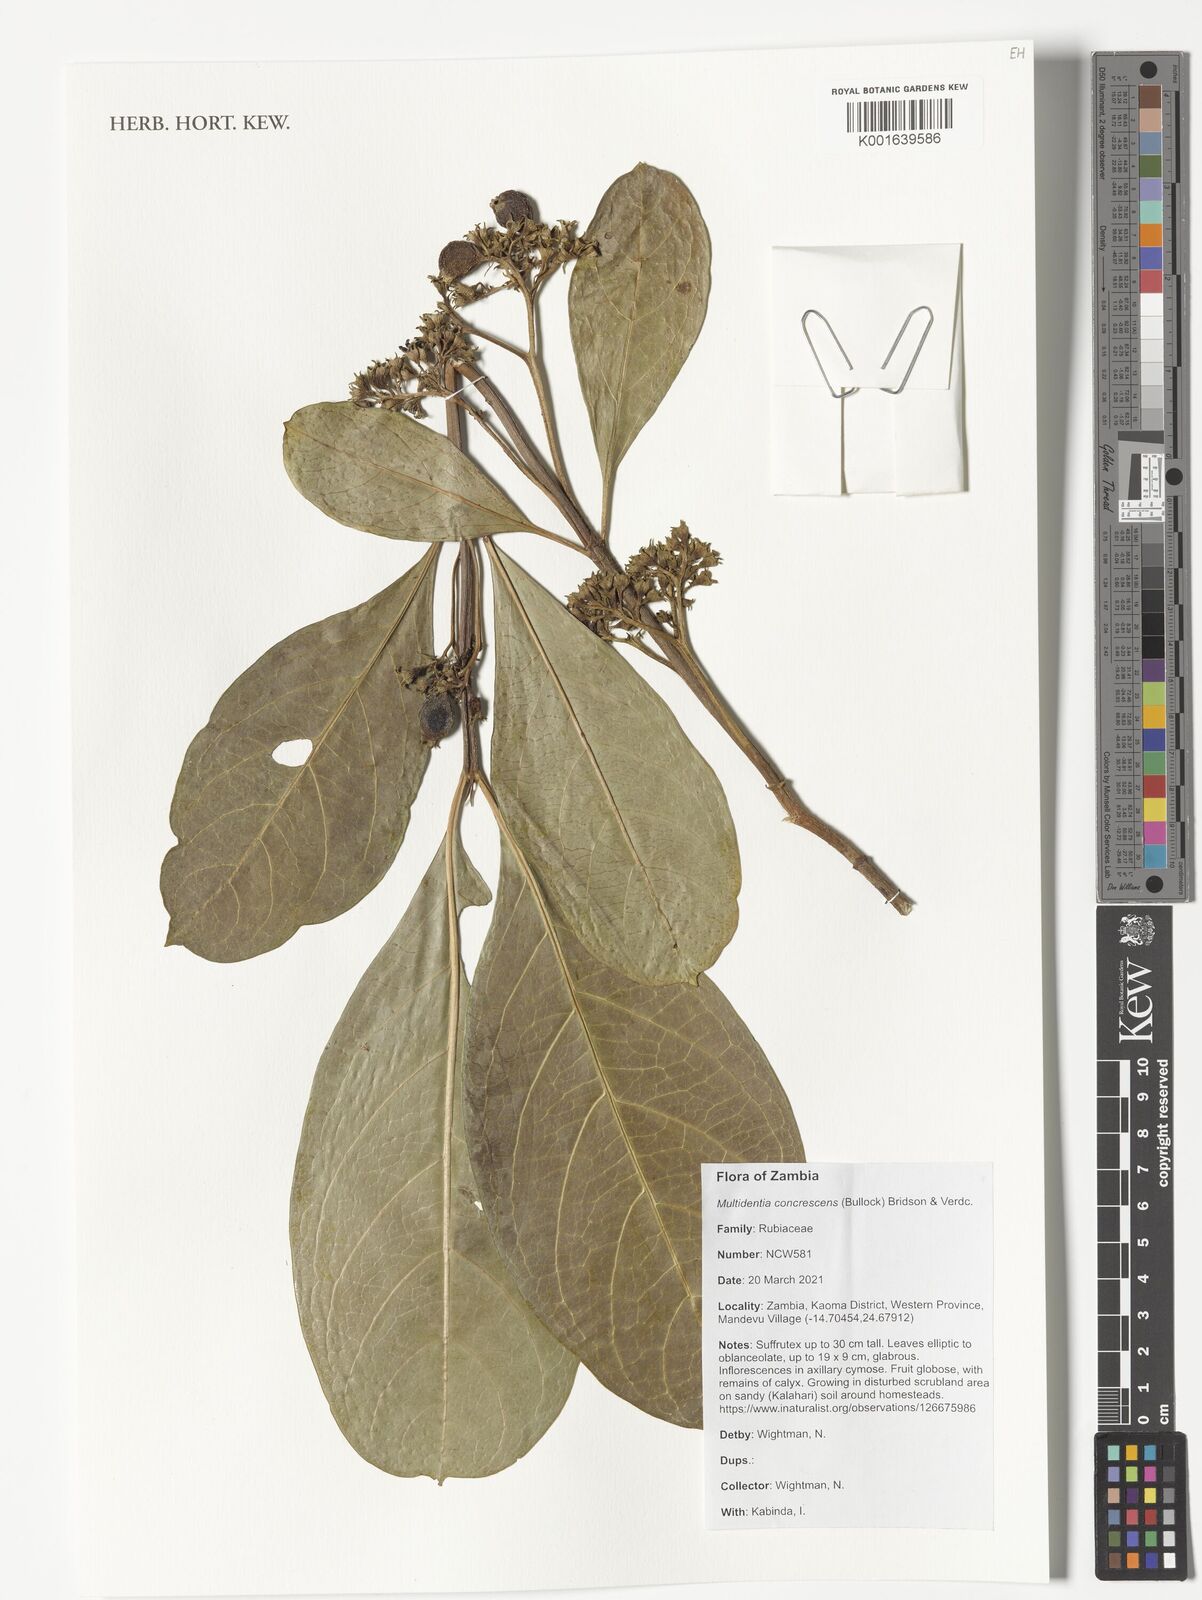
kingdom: Plantae
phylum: Tracheophyta
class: Magnoliopsida
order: Gentianales
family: Rubiaceae
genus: Multidentia
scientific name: Multidentia concrescens
